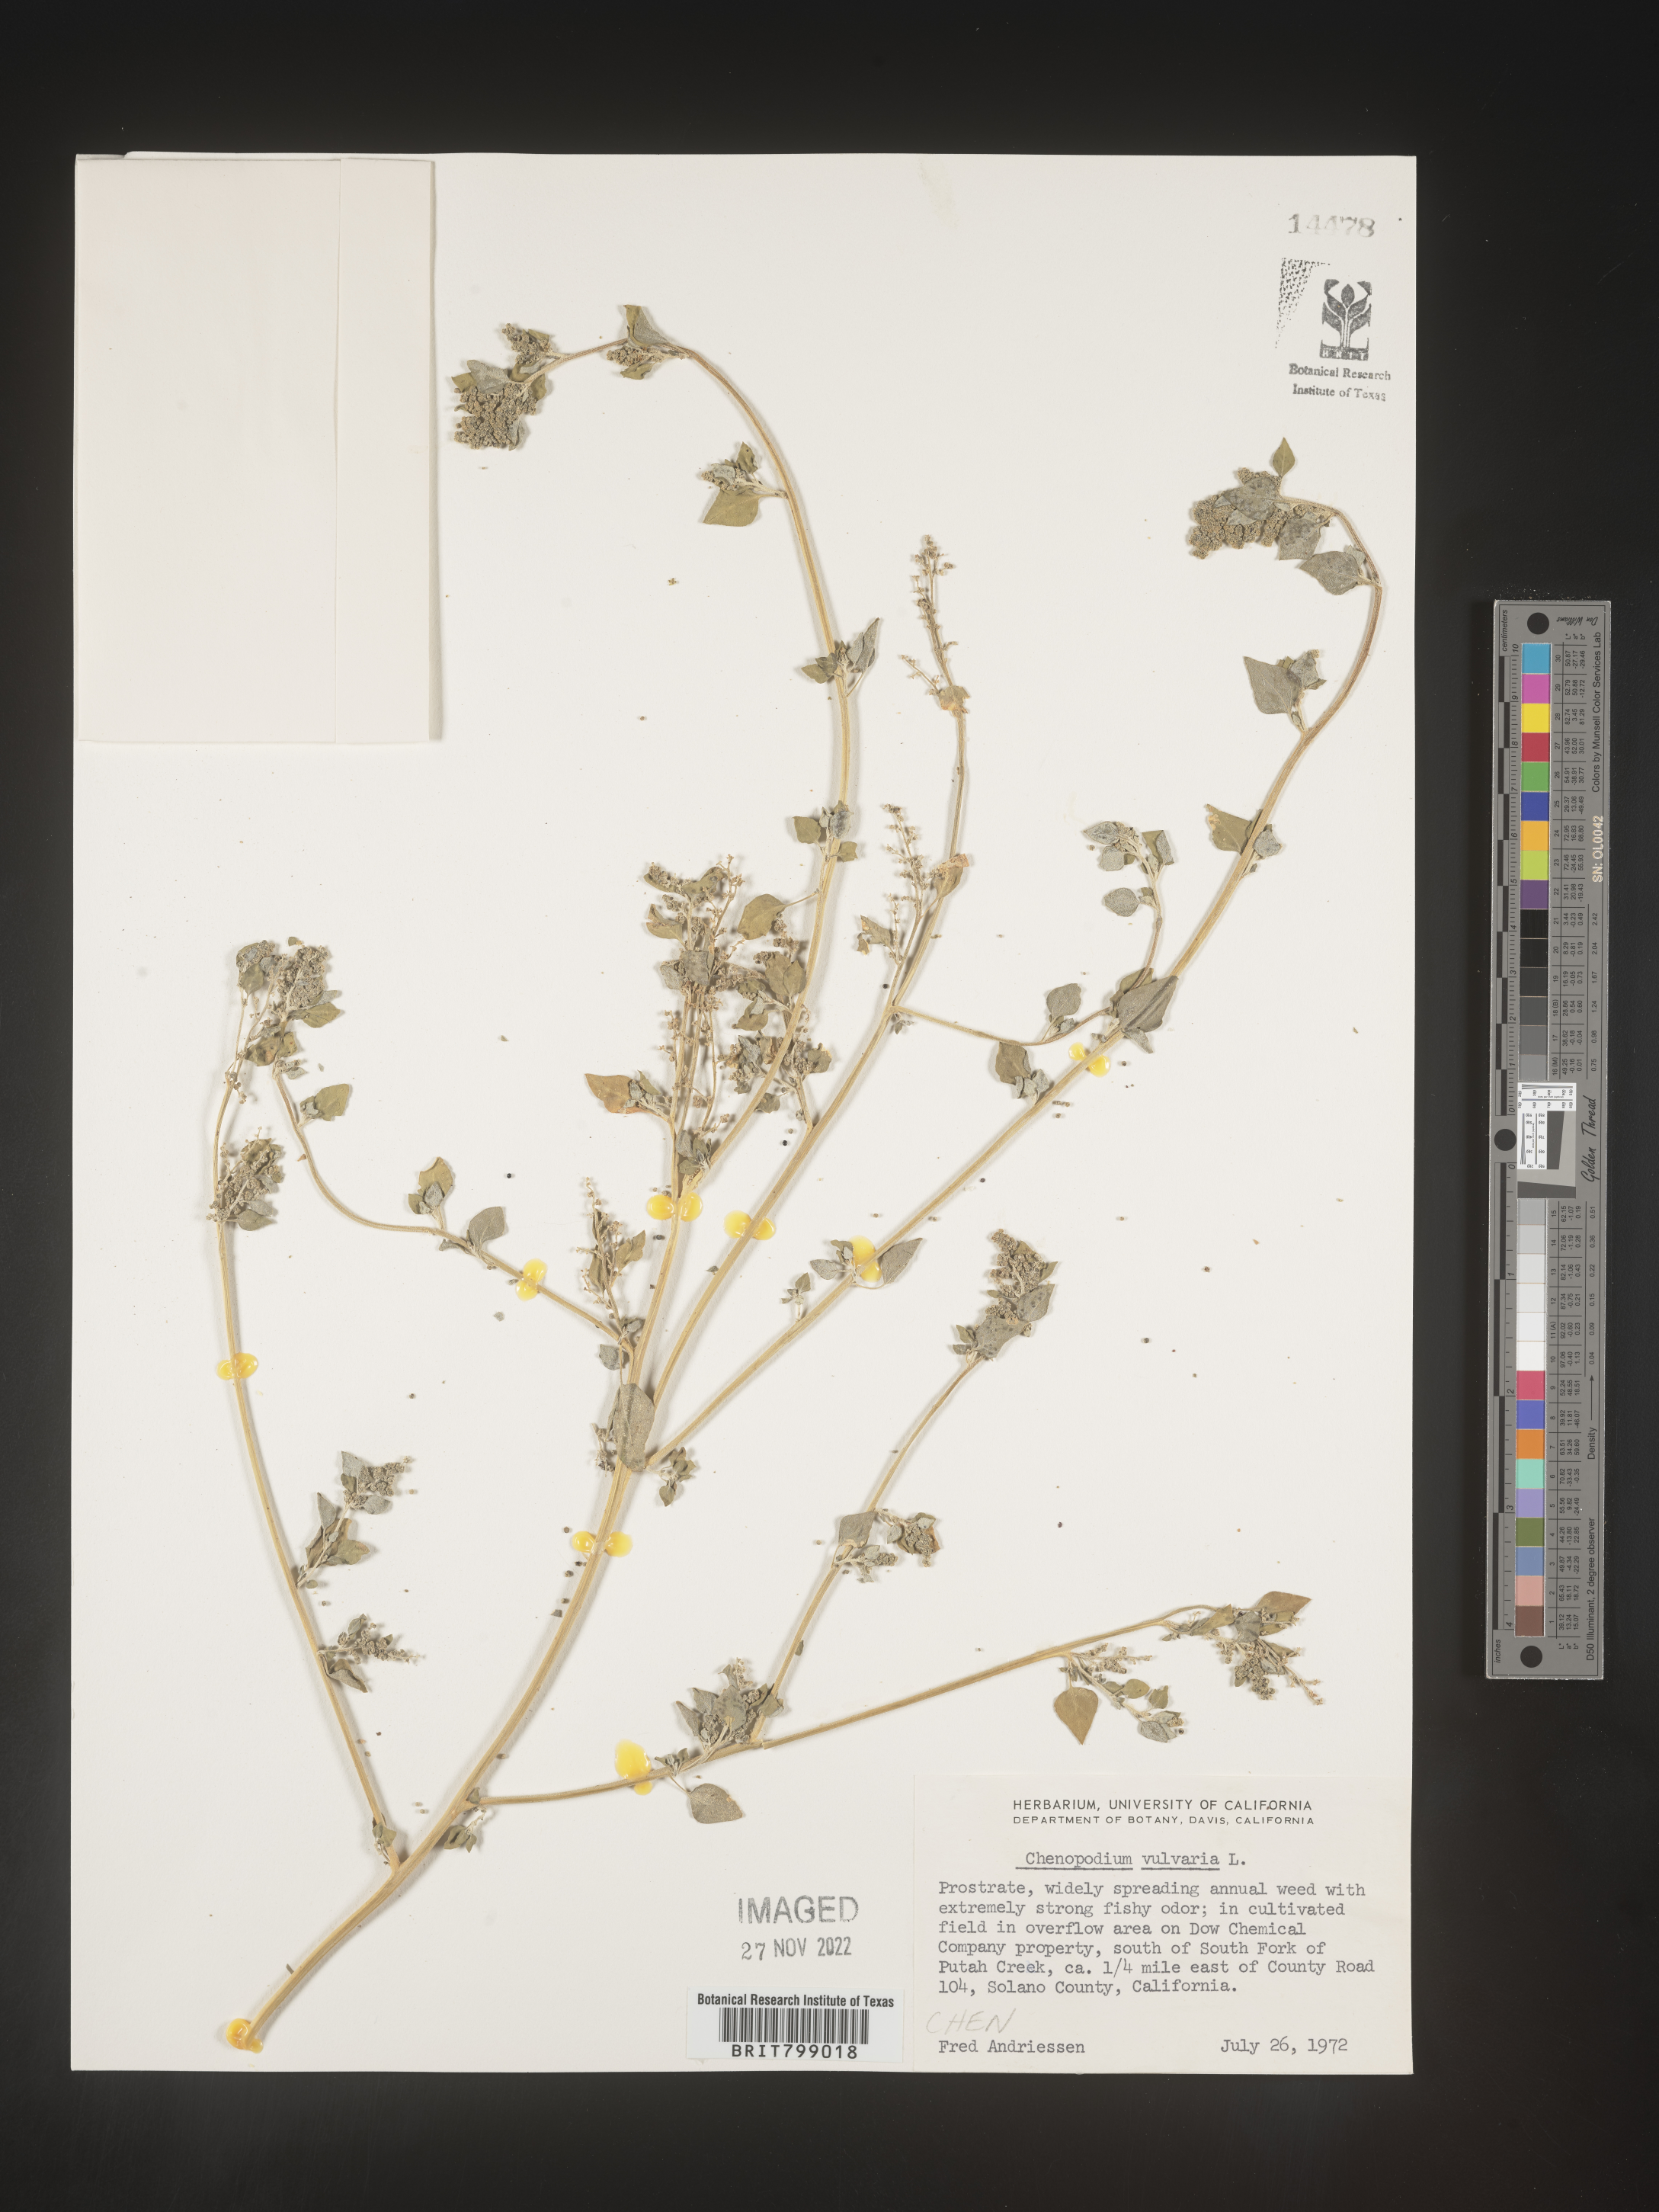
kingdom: Plantae
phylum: Tracheophyta
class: Magnoliopsida
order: Caryophyllales
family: Amaranthaceae
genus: Chenopodium
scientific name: Chenopodium vulvaria
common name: Stinking goosefoot
